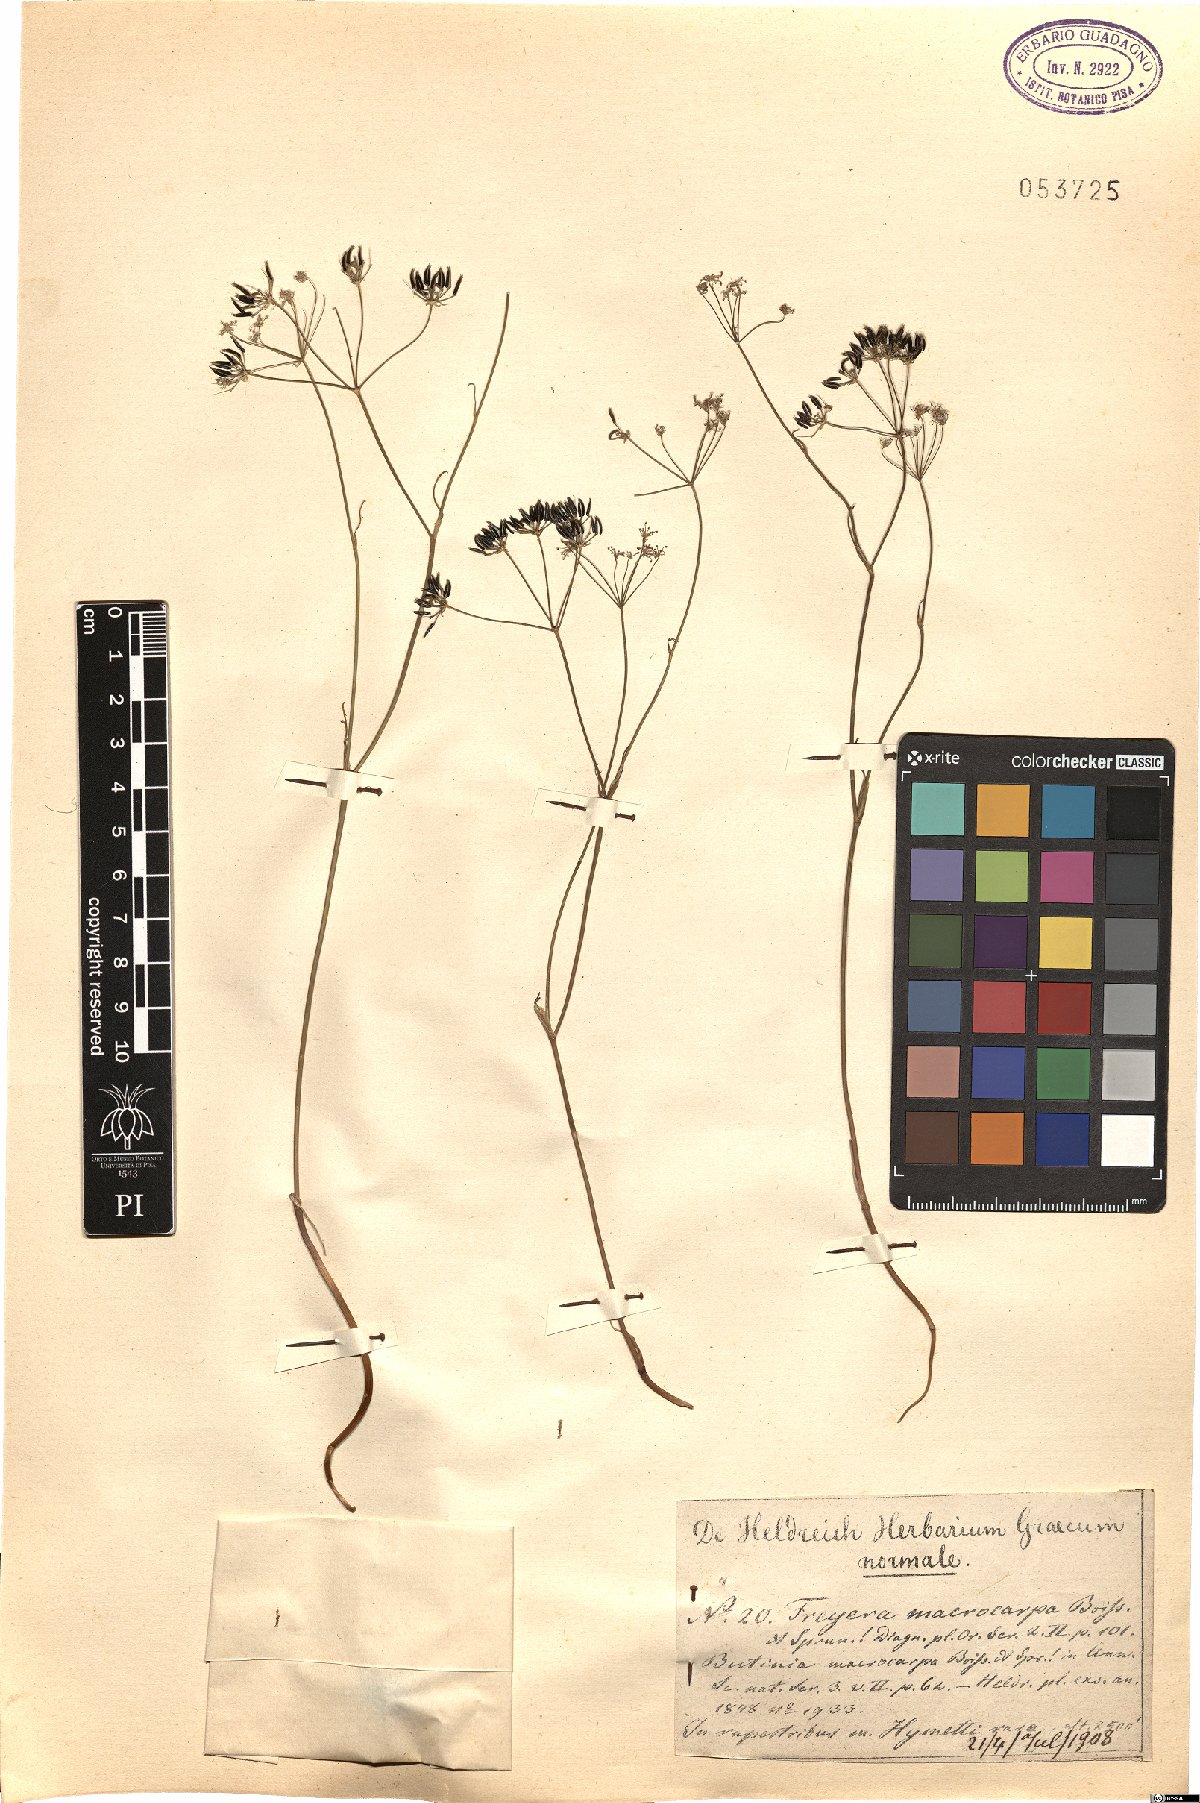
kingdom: Plantae
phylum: Tracheophyta
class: Magnoliopsida
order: Apiales
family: Apiaceae
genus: Geocaryum
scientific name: Geocaryum macrocarpum
